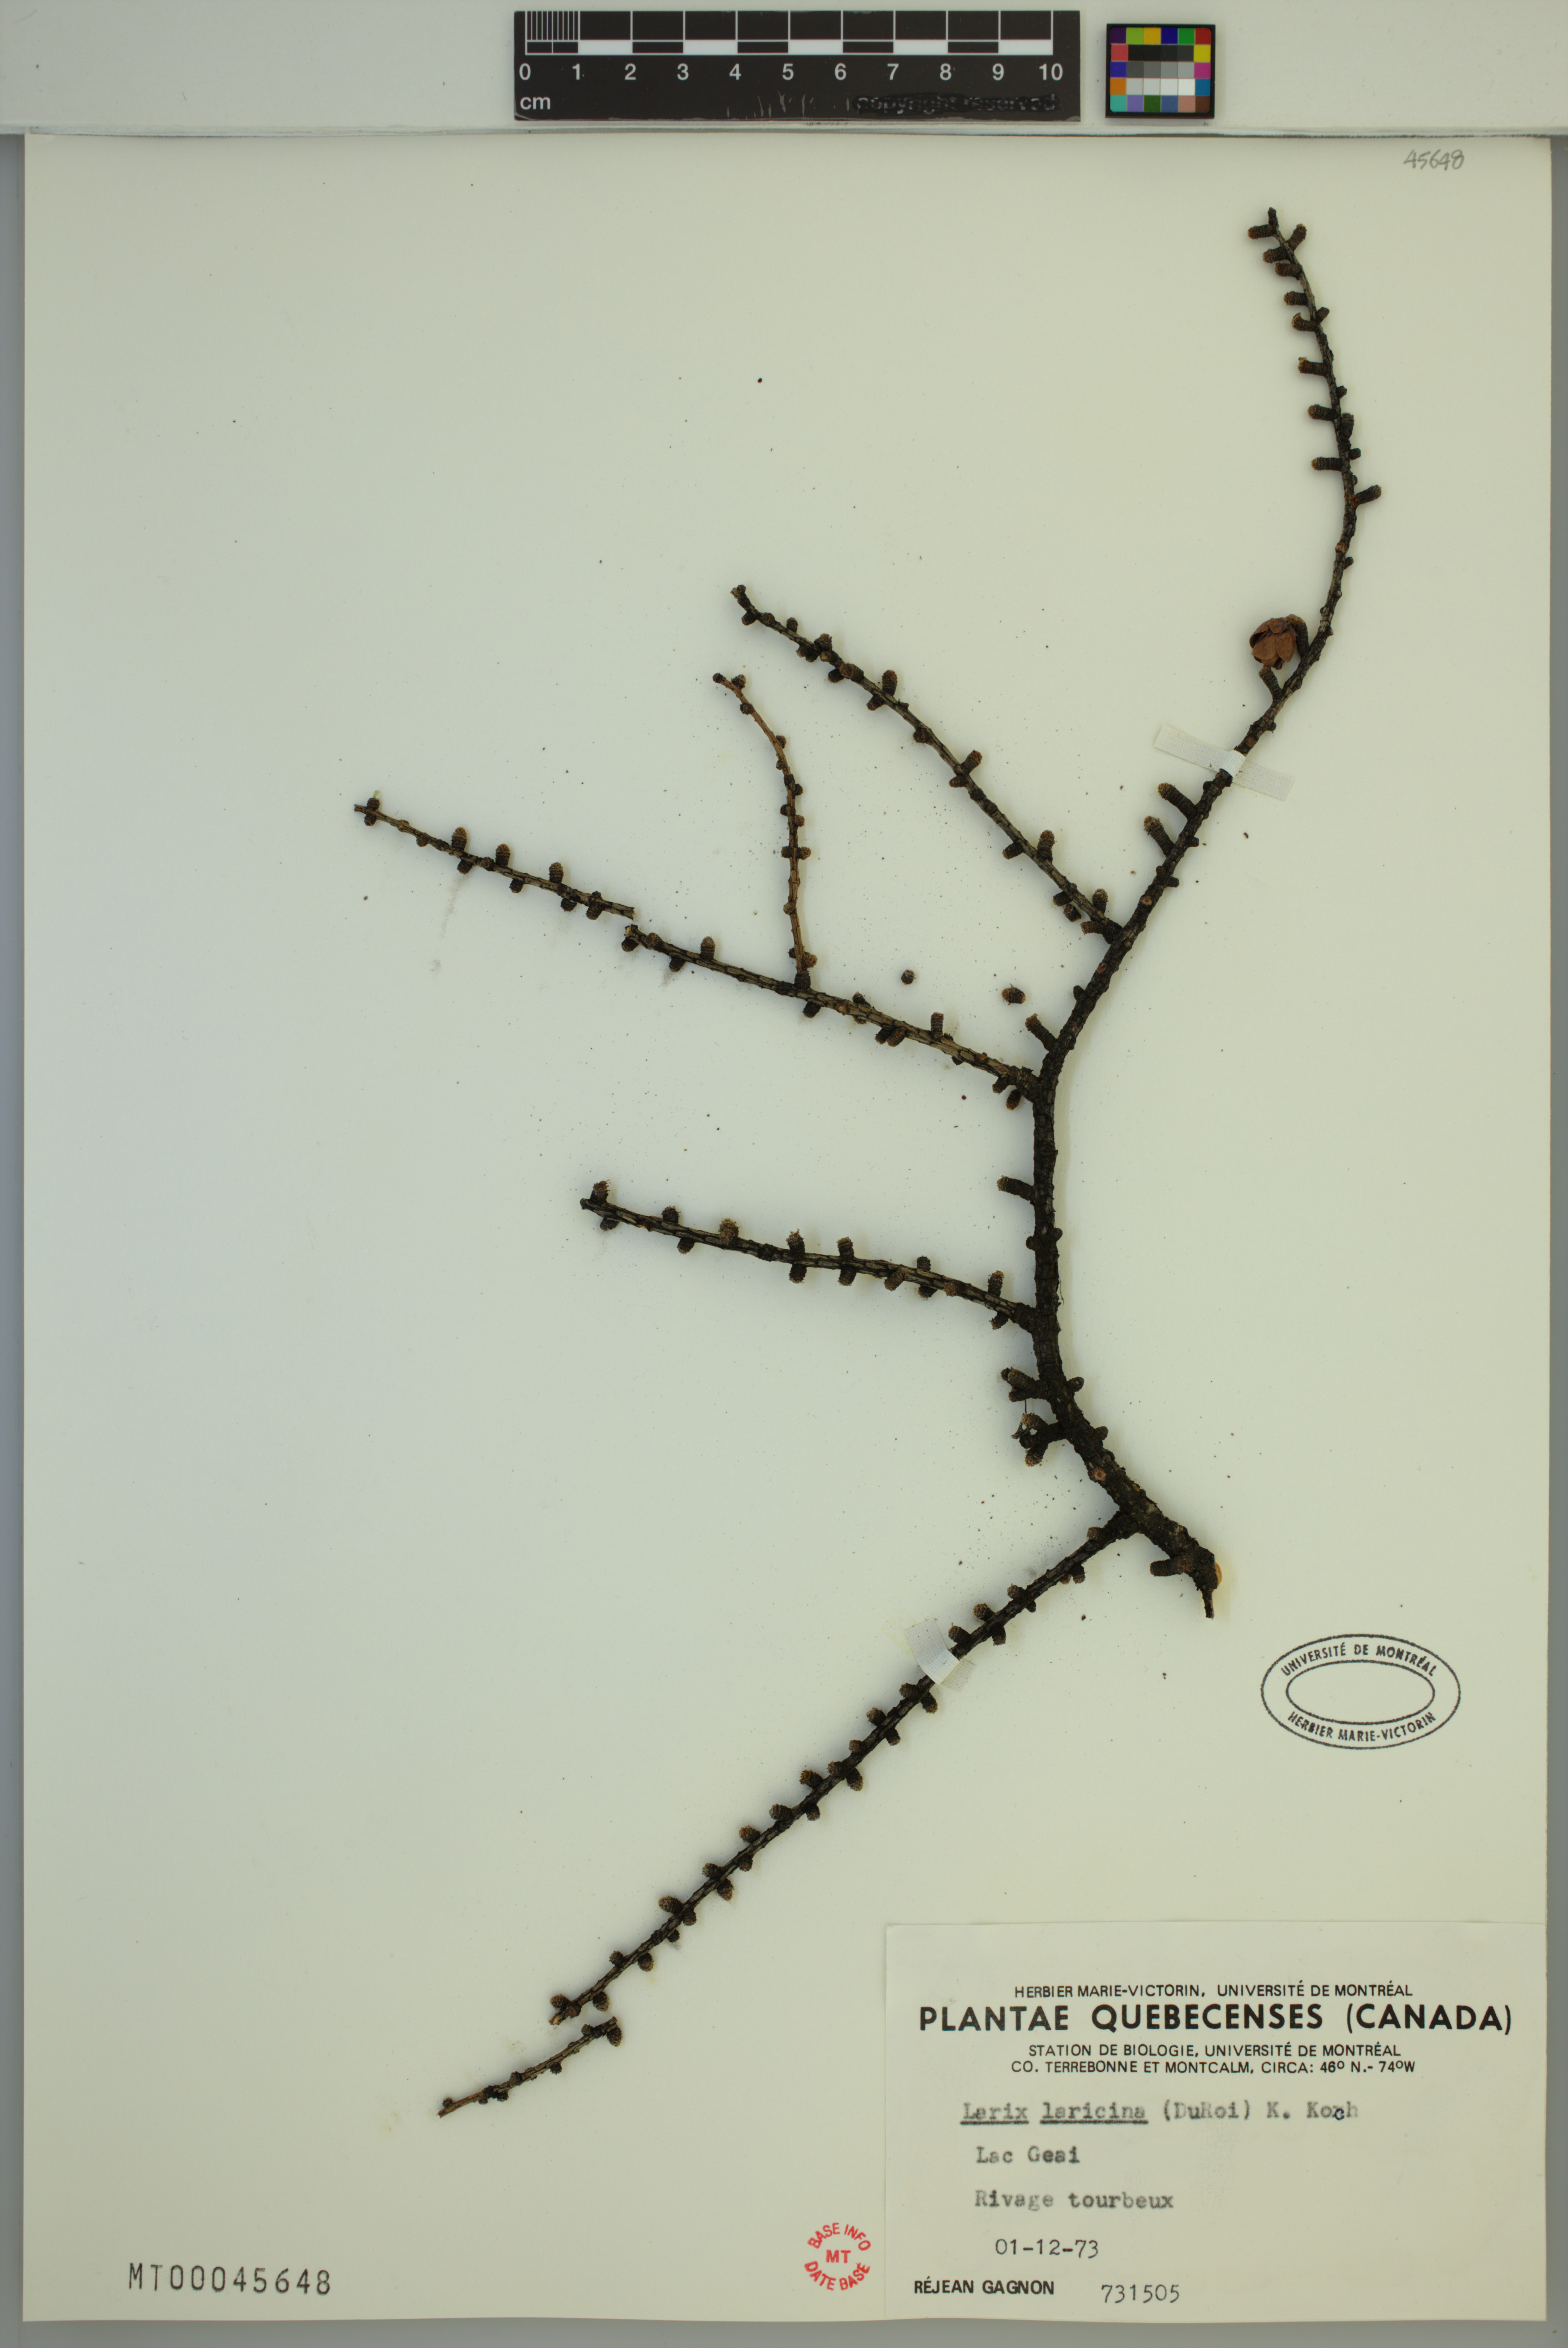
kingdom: Plantae
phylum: Tracheophyta
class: Pinopsida
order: Pinales
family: Pinaceae
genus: Larix
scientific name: Larix laricina
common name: American larch
